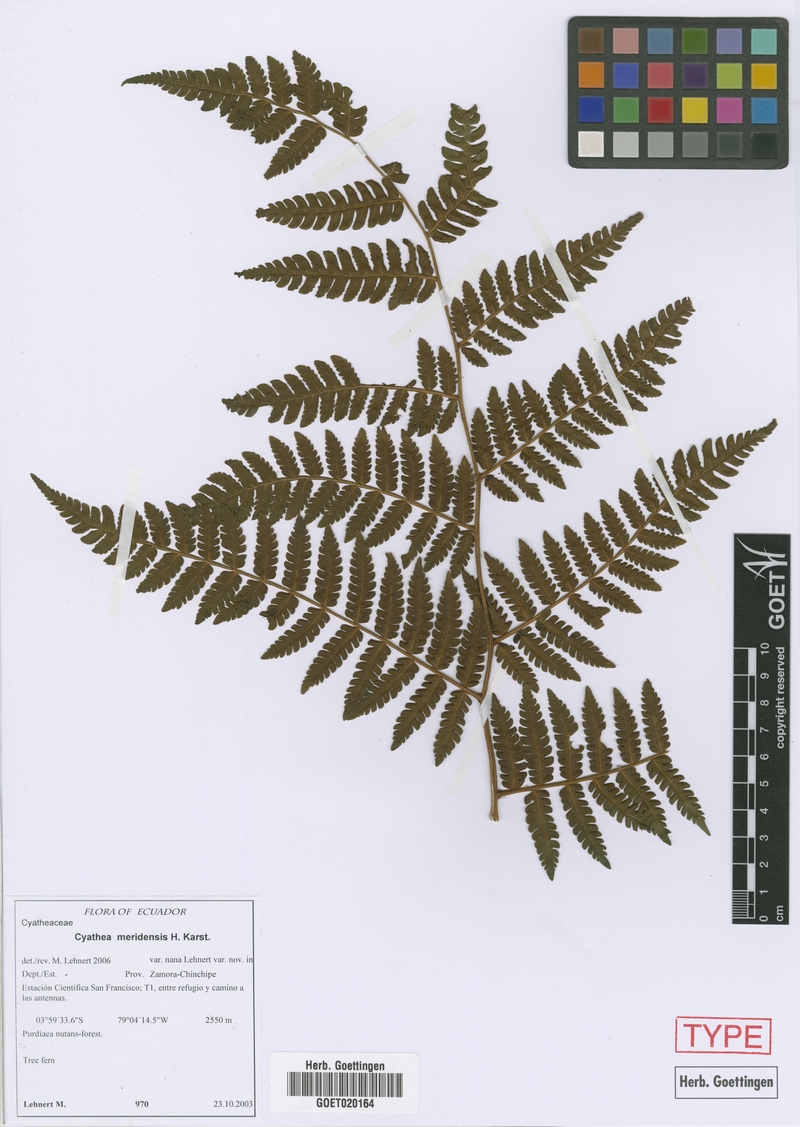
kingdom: Plantae
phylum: Tracheophyta
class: Polypodiopsida
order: Cyatheales
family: Cyatheaceae
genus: Cyathea
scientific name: Cyathea meridensis
